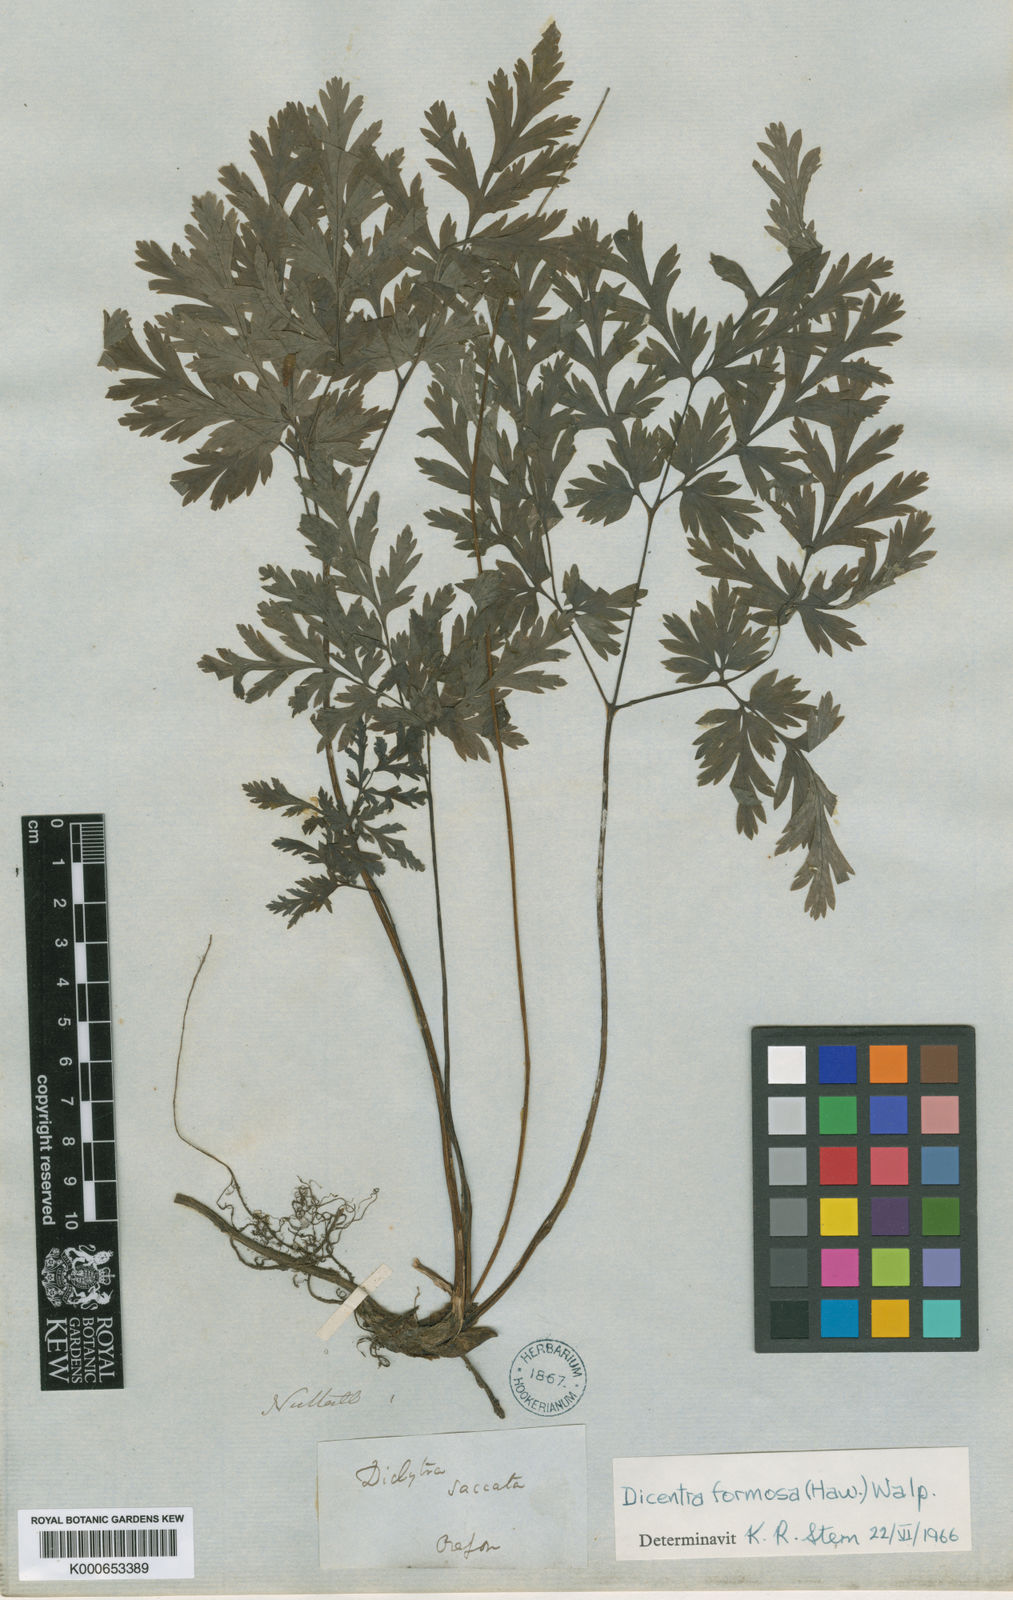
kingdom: Plantae
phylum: Tracheophyta
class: Magnoliopsida
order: Ranunculales
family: Papaveraceae
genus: Dicentra
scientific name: Dicentra formosa
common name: Bleeding-heart
